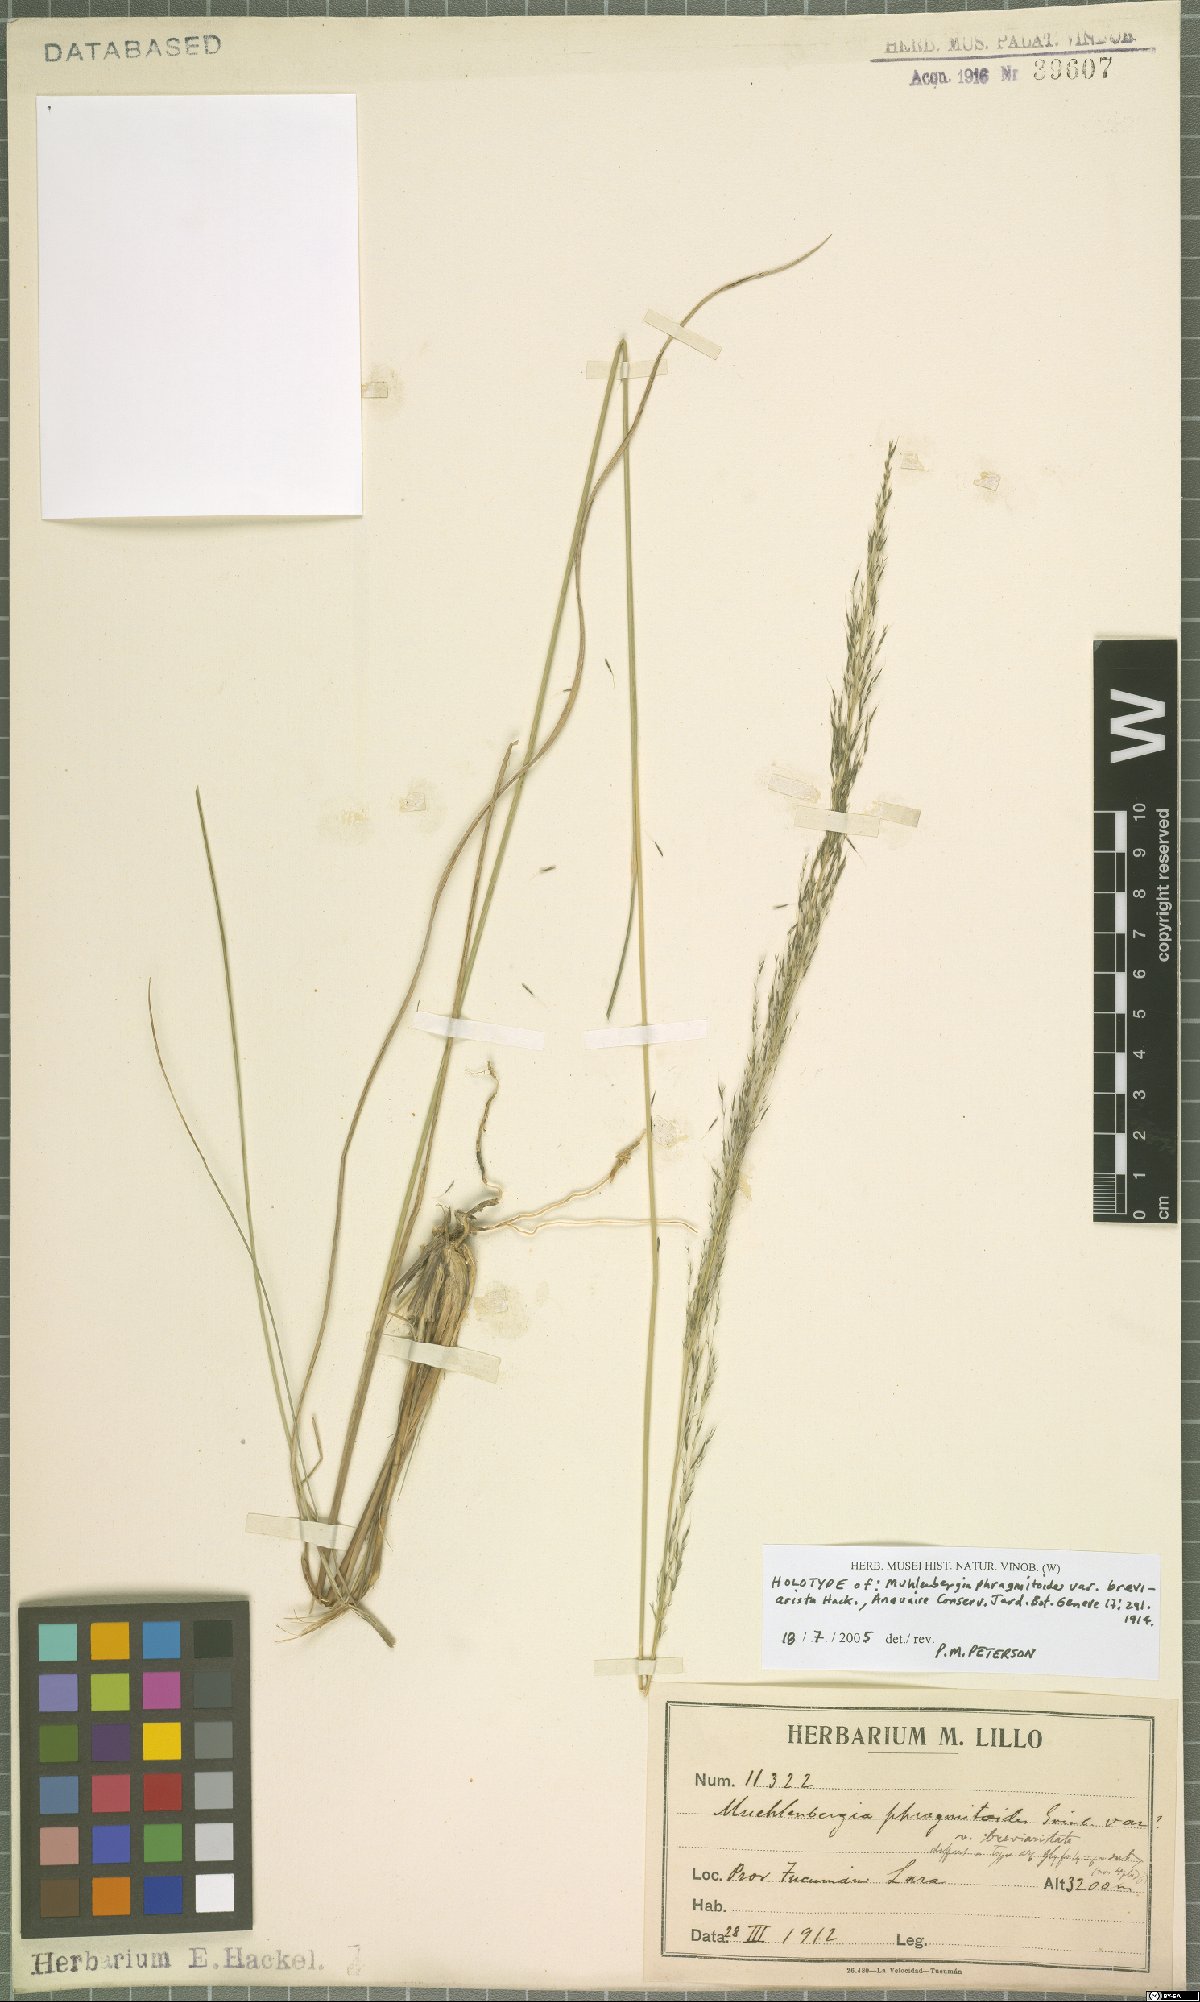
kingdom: Plantae
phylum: Tracheophyta
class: Liliopsida
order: Poales
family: Poaceae
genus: Muhlenbergia
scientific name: Muhlenbergia angustata
